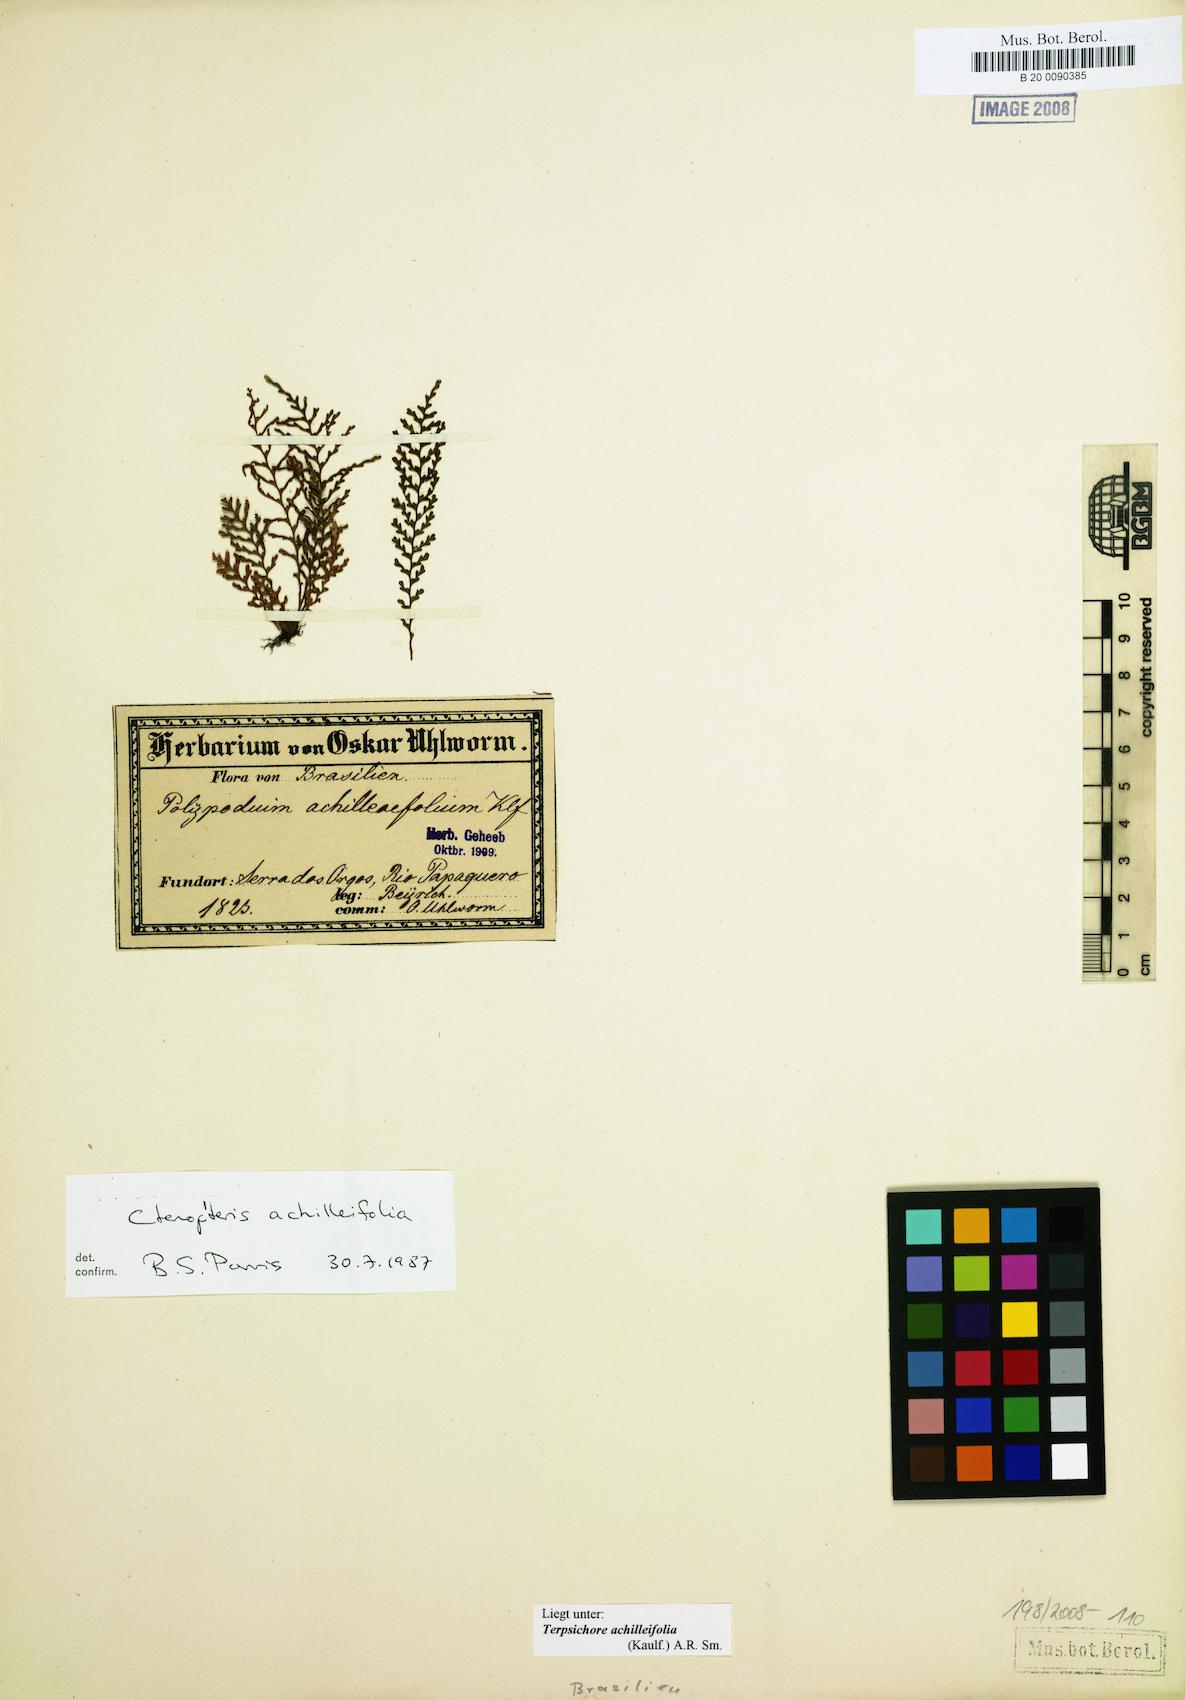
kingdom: Plantae
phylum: Tracheophyta
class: Polypodiopsida
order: Polypodiales
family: Polypodiaceae
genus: Moranopteris
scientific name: Moranopteris achilleifolia
